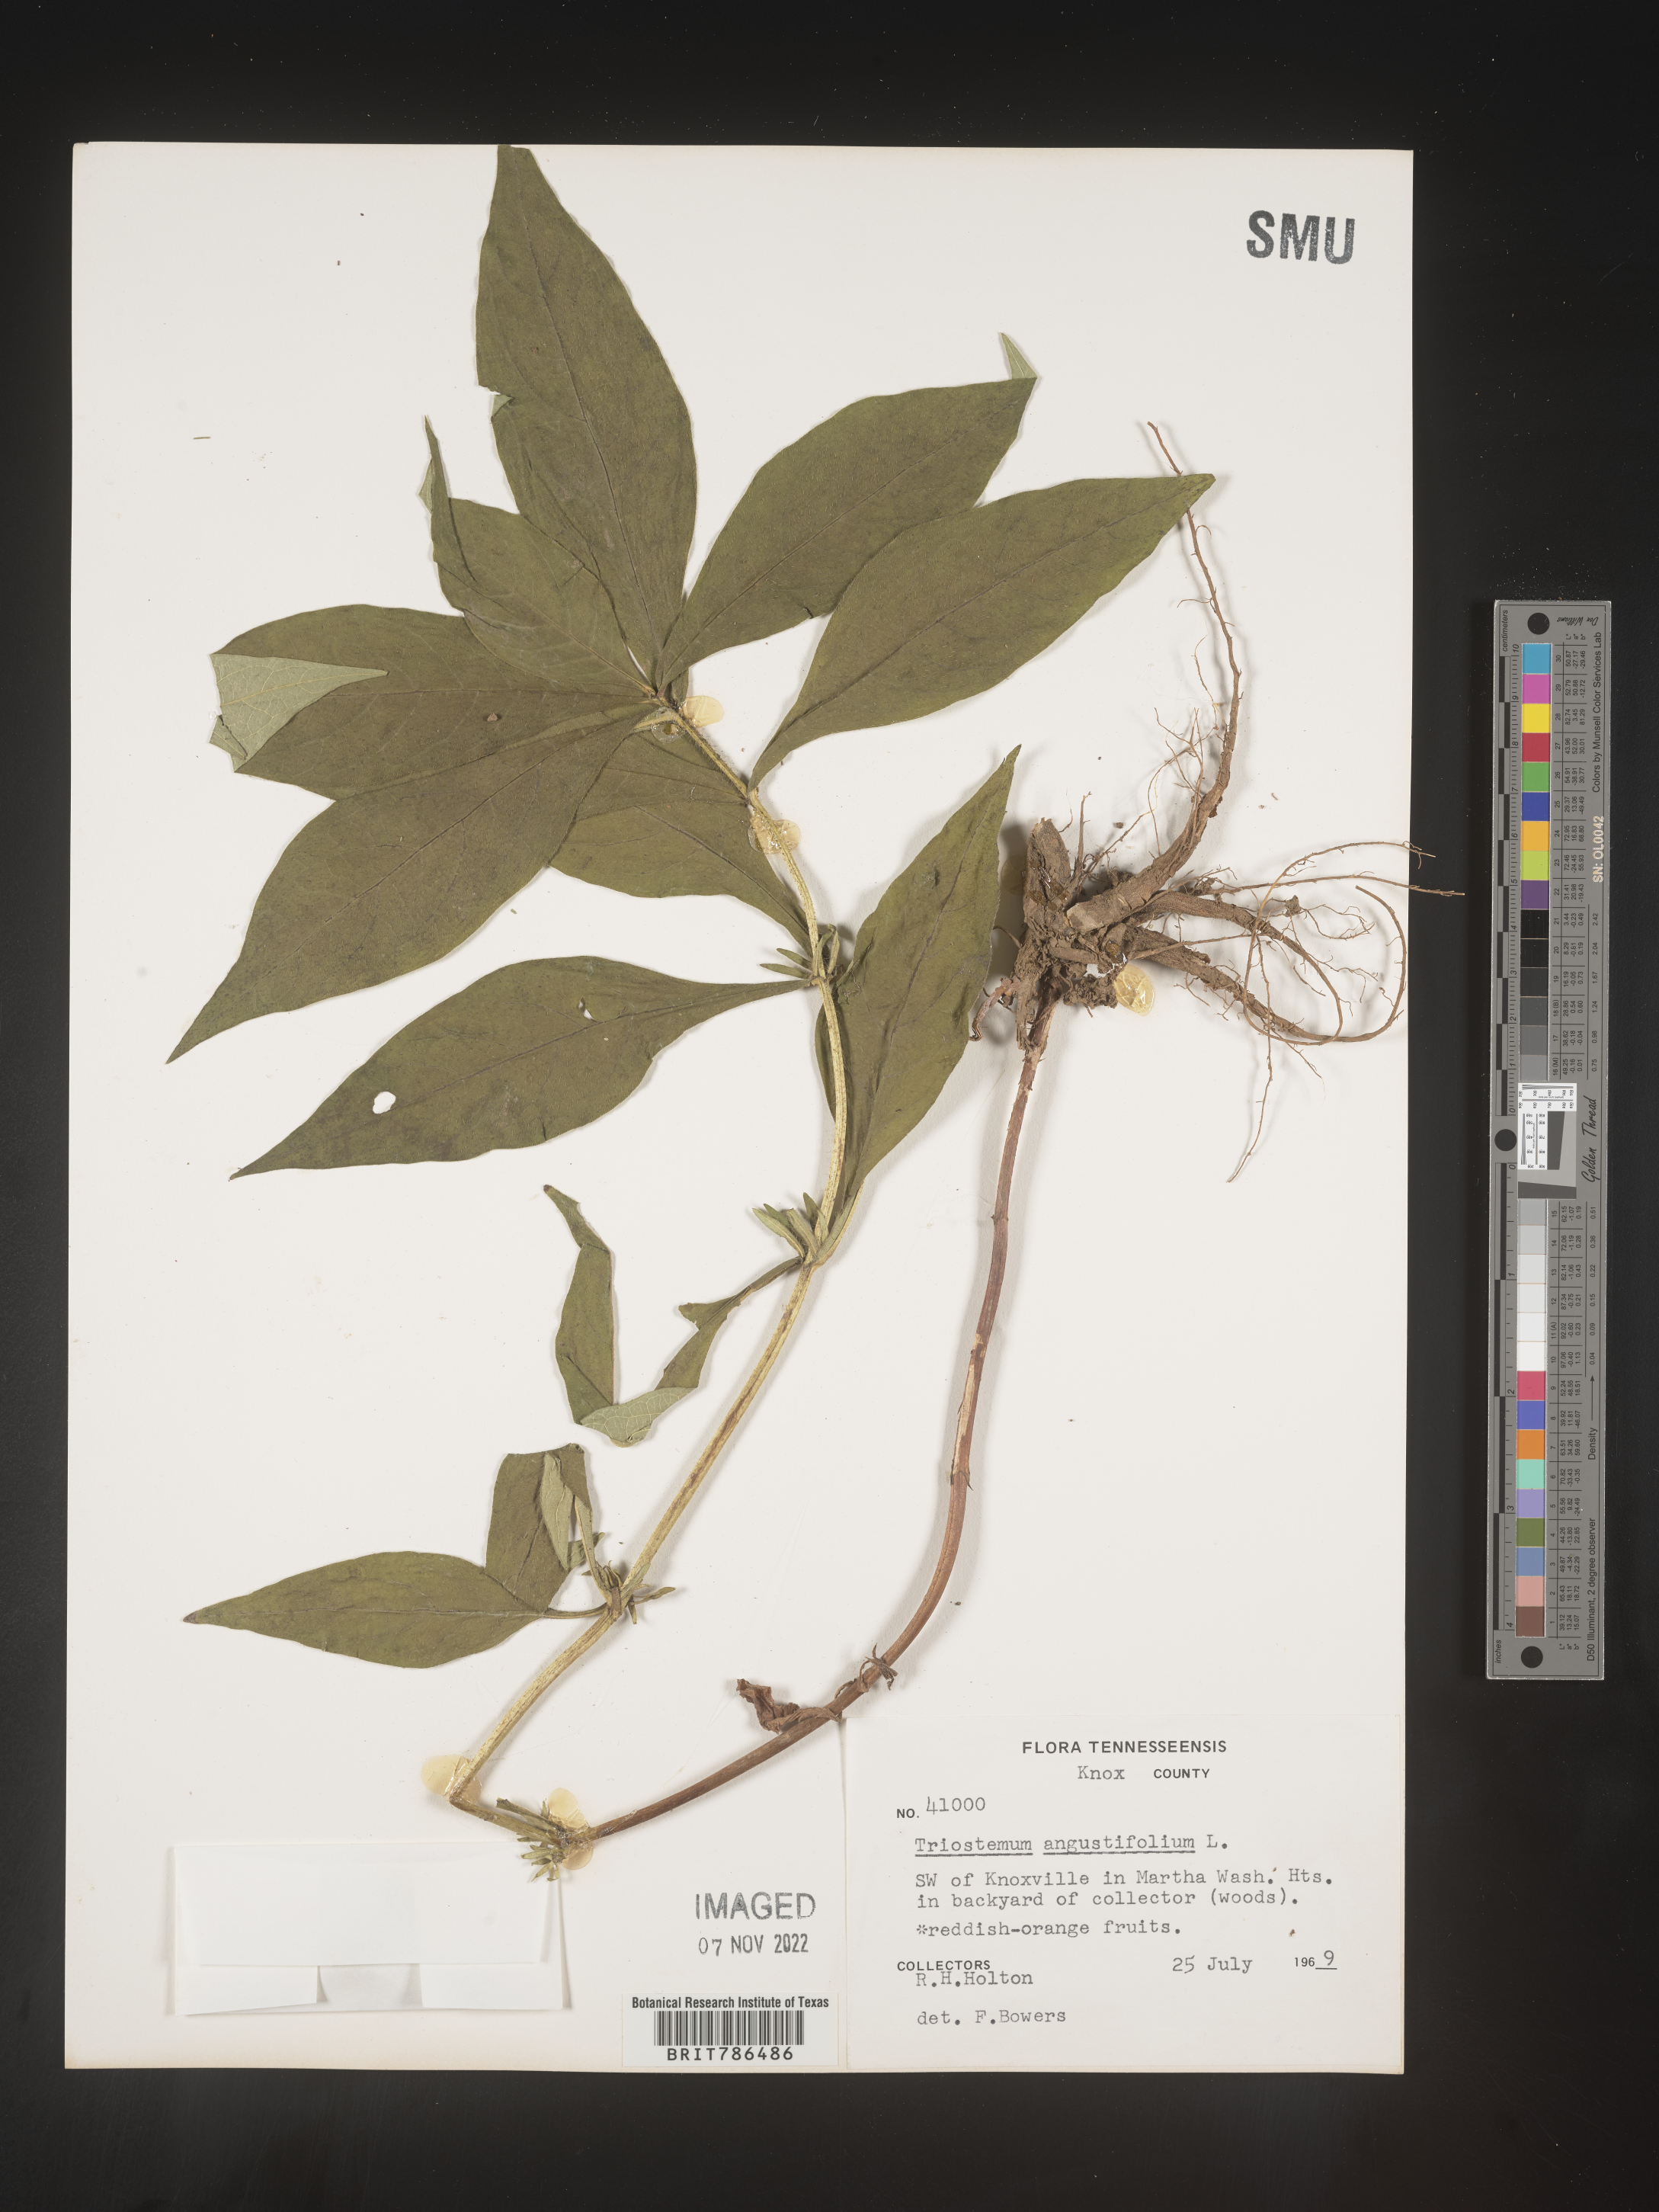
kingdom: Plantae
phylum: Tracheophyta
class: Magnoliopsida
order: Dipsacales
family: Caprifoliaceae
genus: Triosteum
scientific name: Triosteum angustifolium
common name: Narrow-leaved horse-gentian
